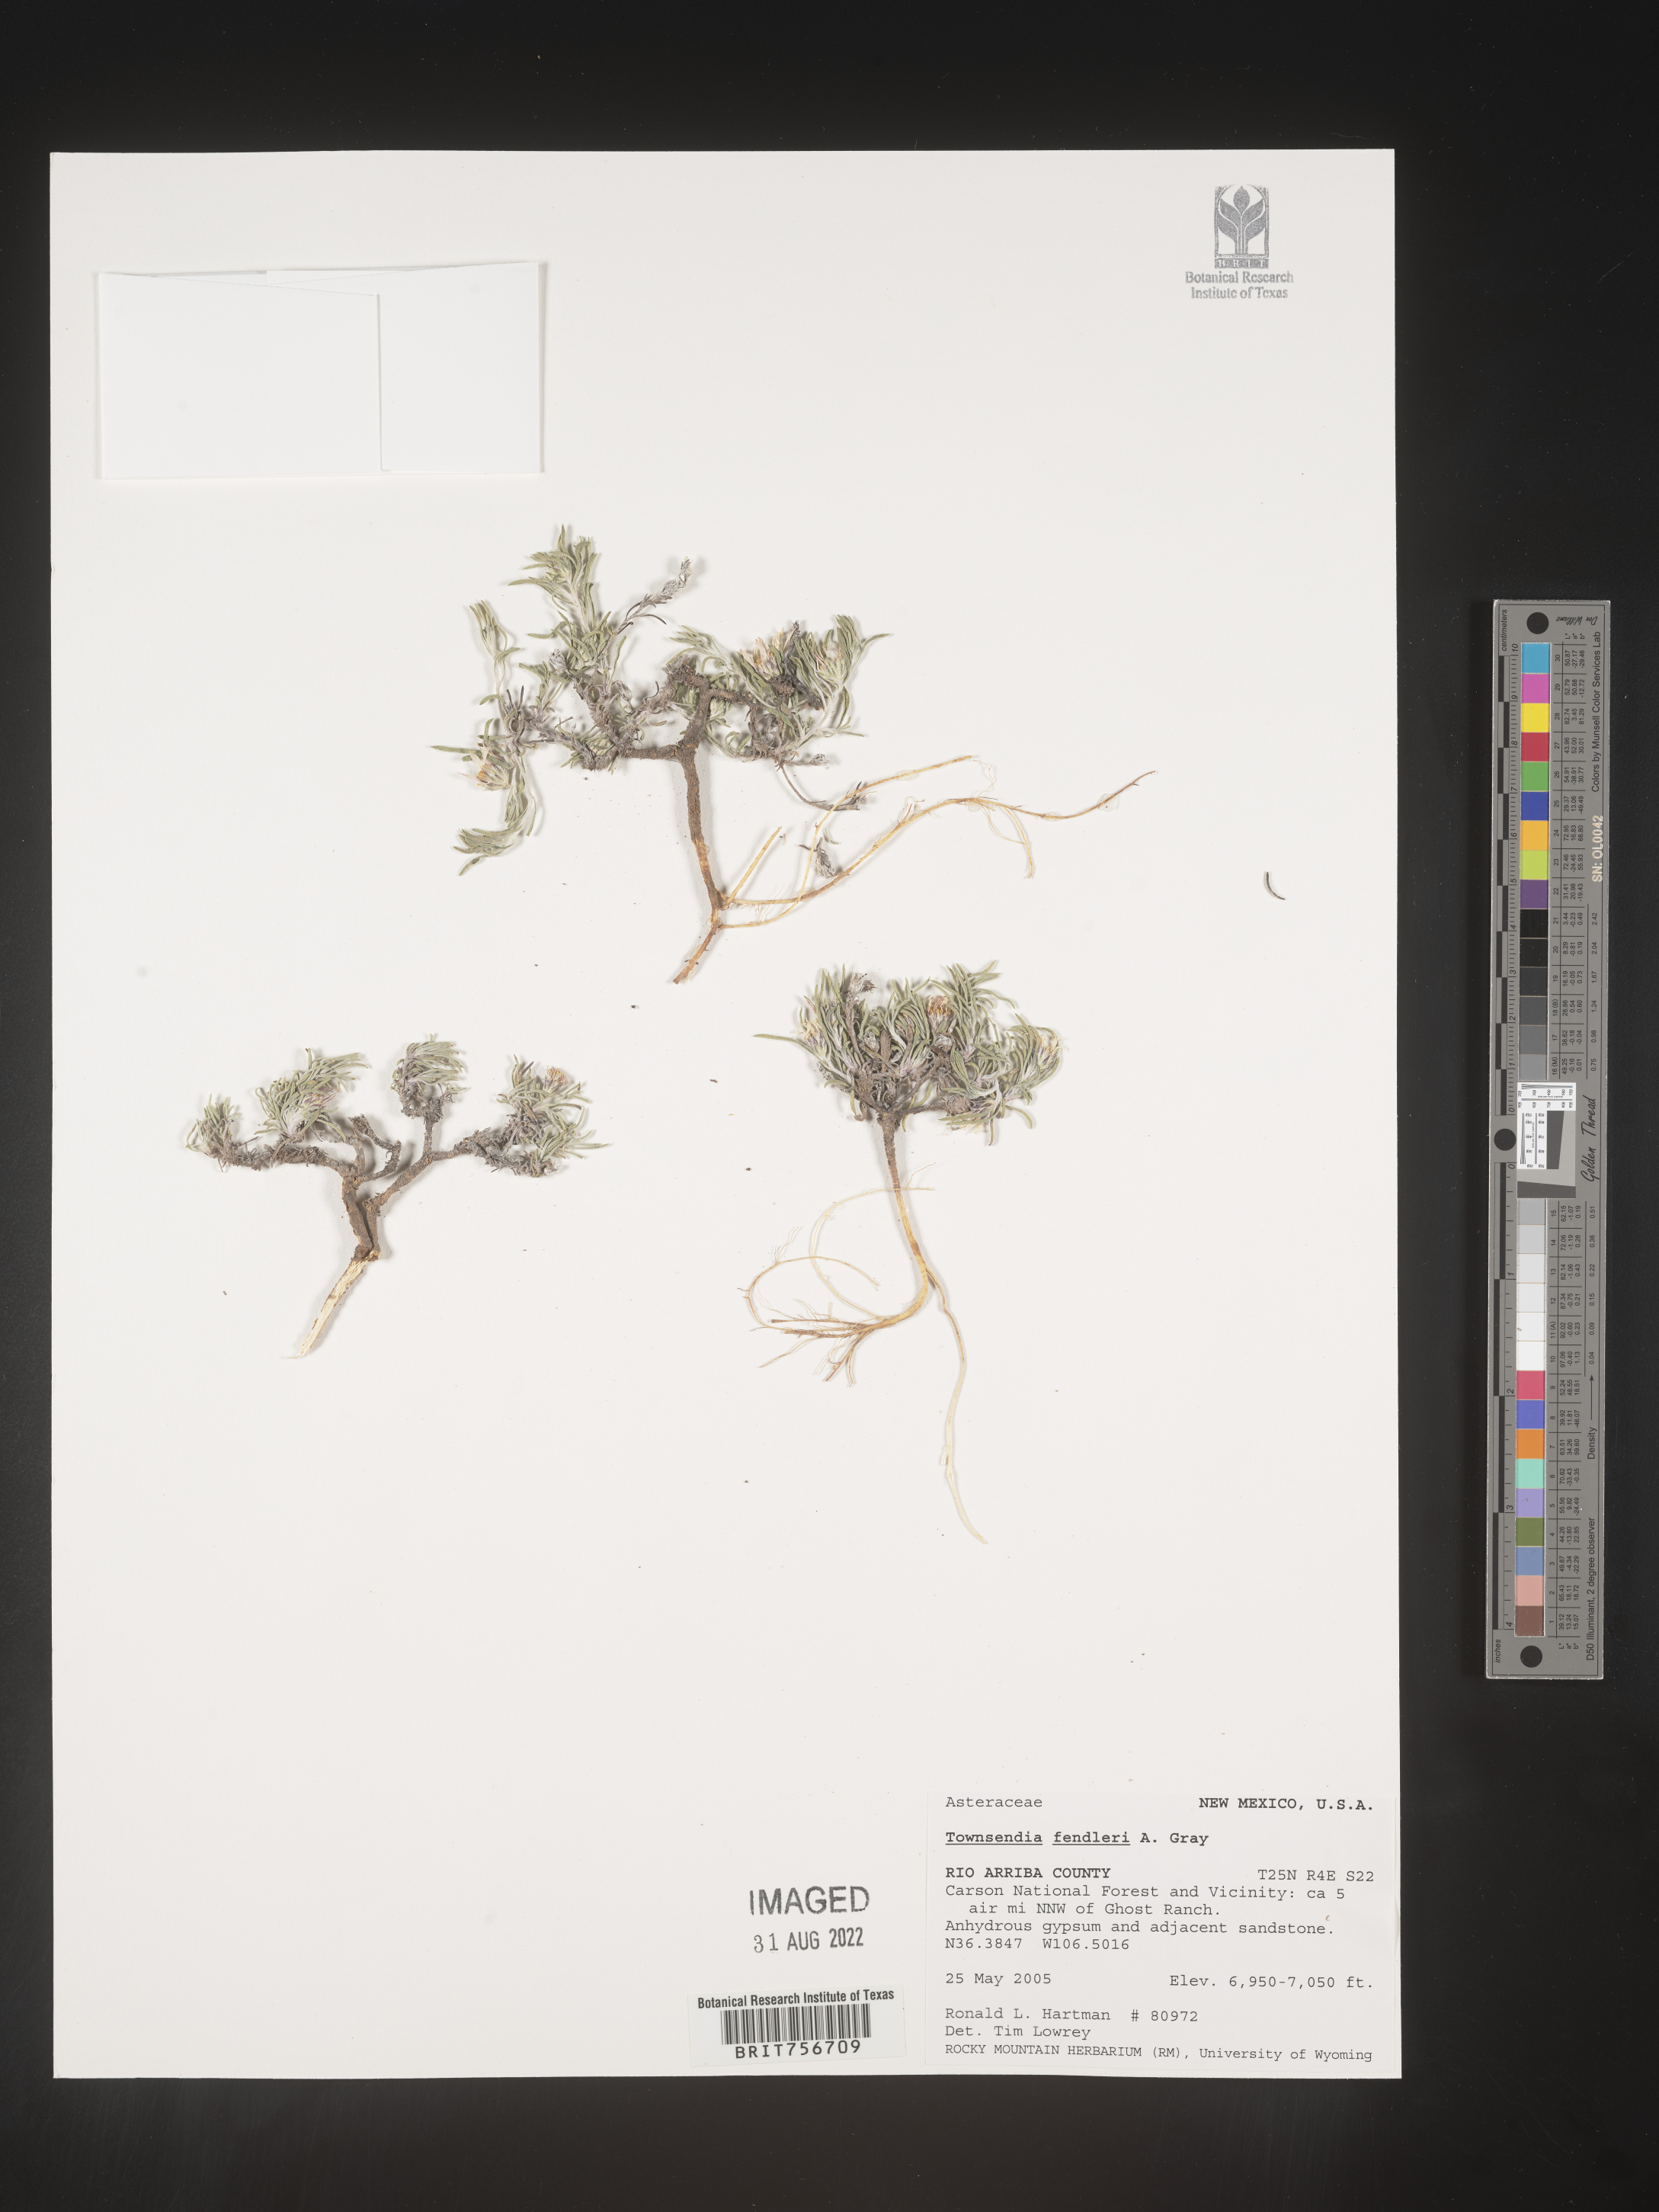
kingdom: Plantae
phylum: Tracheophyta
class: Magnoliopsida
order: Asterales
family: Asteraceae
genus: Townsendia
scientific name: Townsendia fendleri
